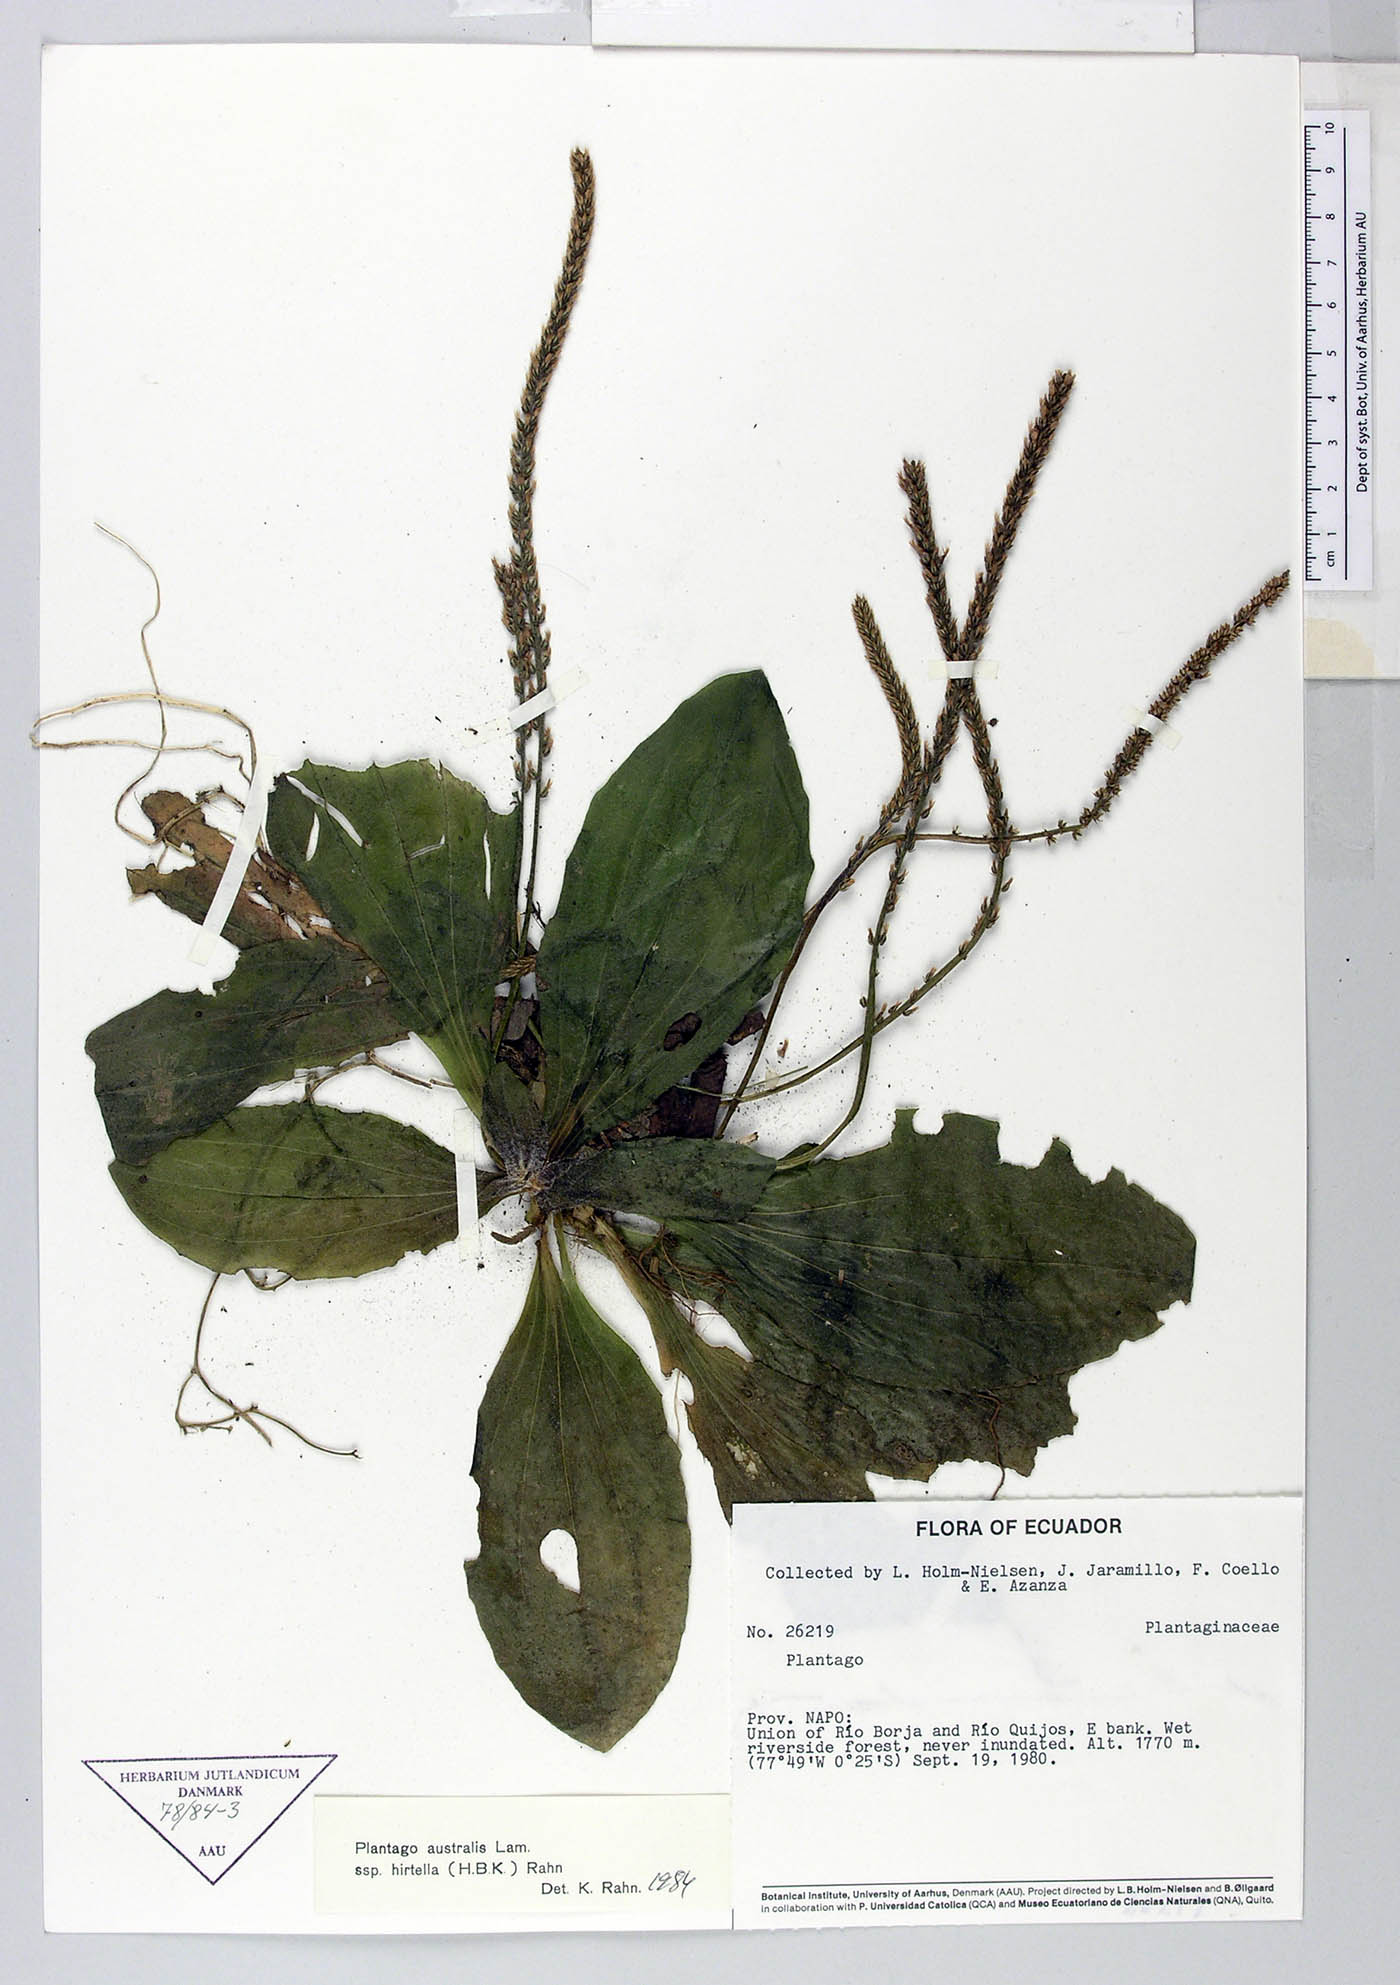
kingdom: Plantae
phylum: Tracheophyta
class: Magnoliopsida
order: Lamiales
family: Plantaginaceae
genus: Plantago
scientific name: Plantago australis
